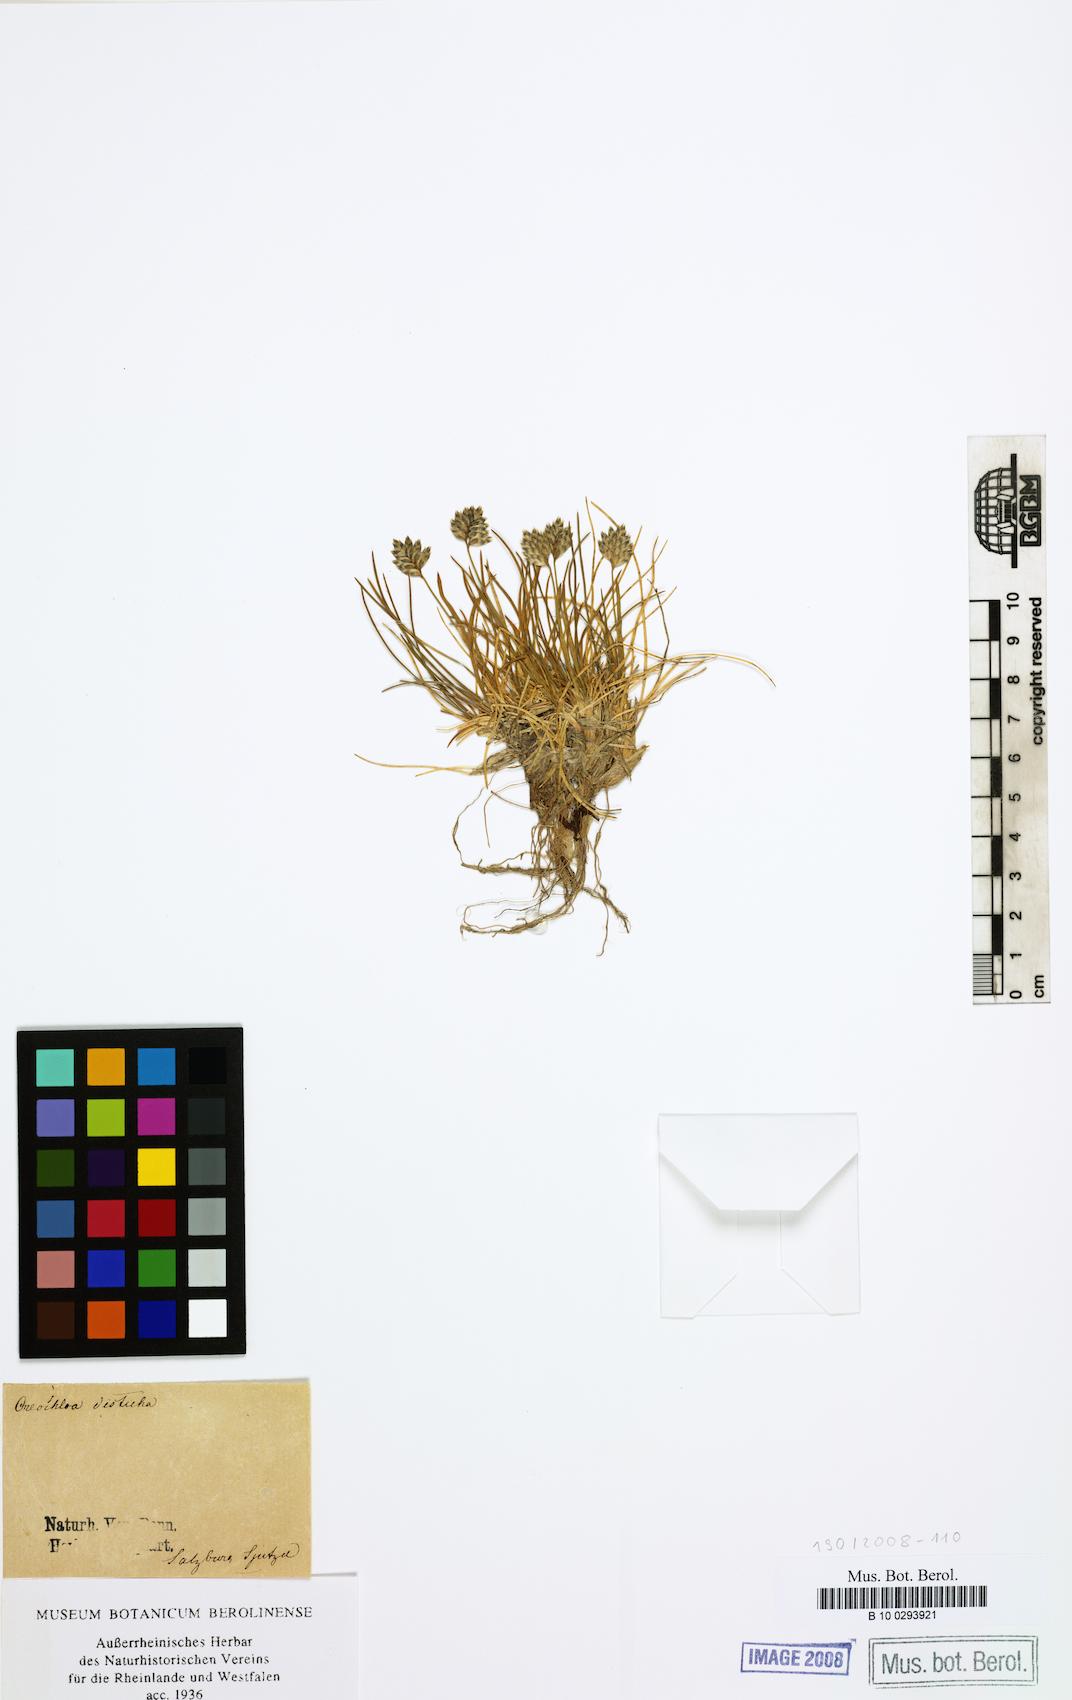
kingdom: Plantae
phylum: Tracheophyta
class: Liliopsida
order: Poales
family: Poaceae
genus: Oreochloa
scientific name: Oreochloa disticha
